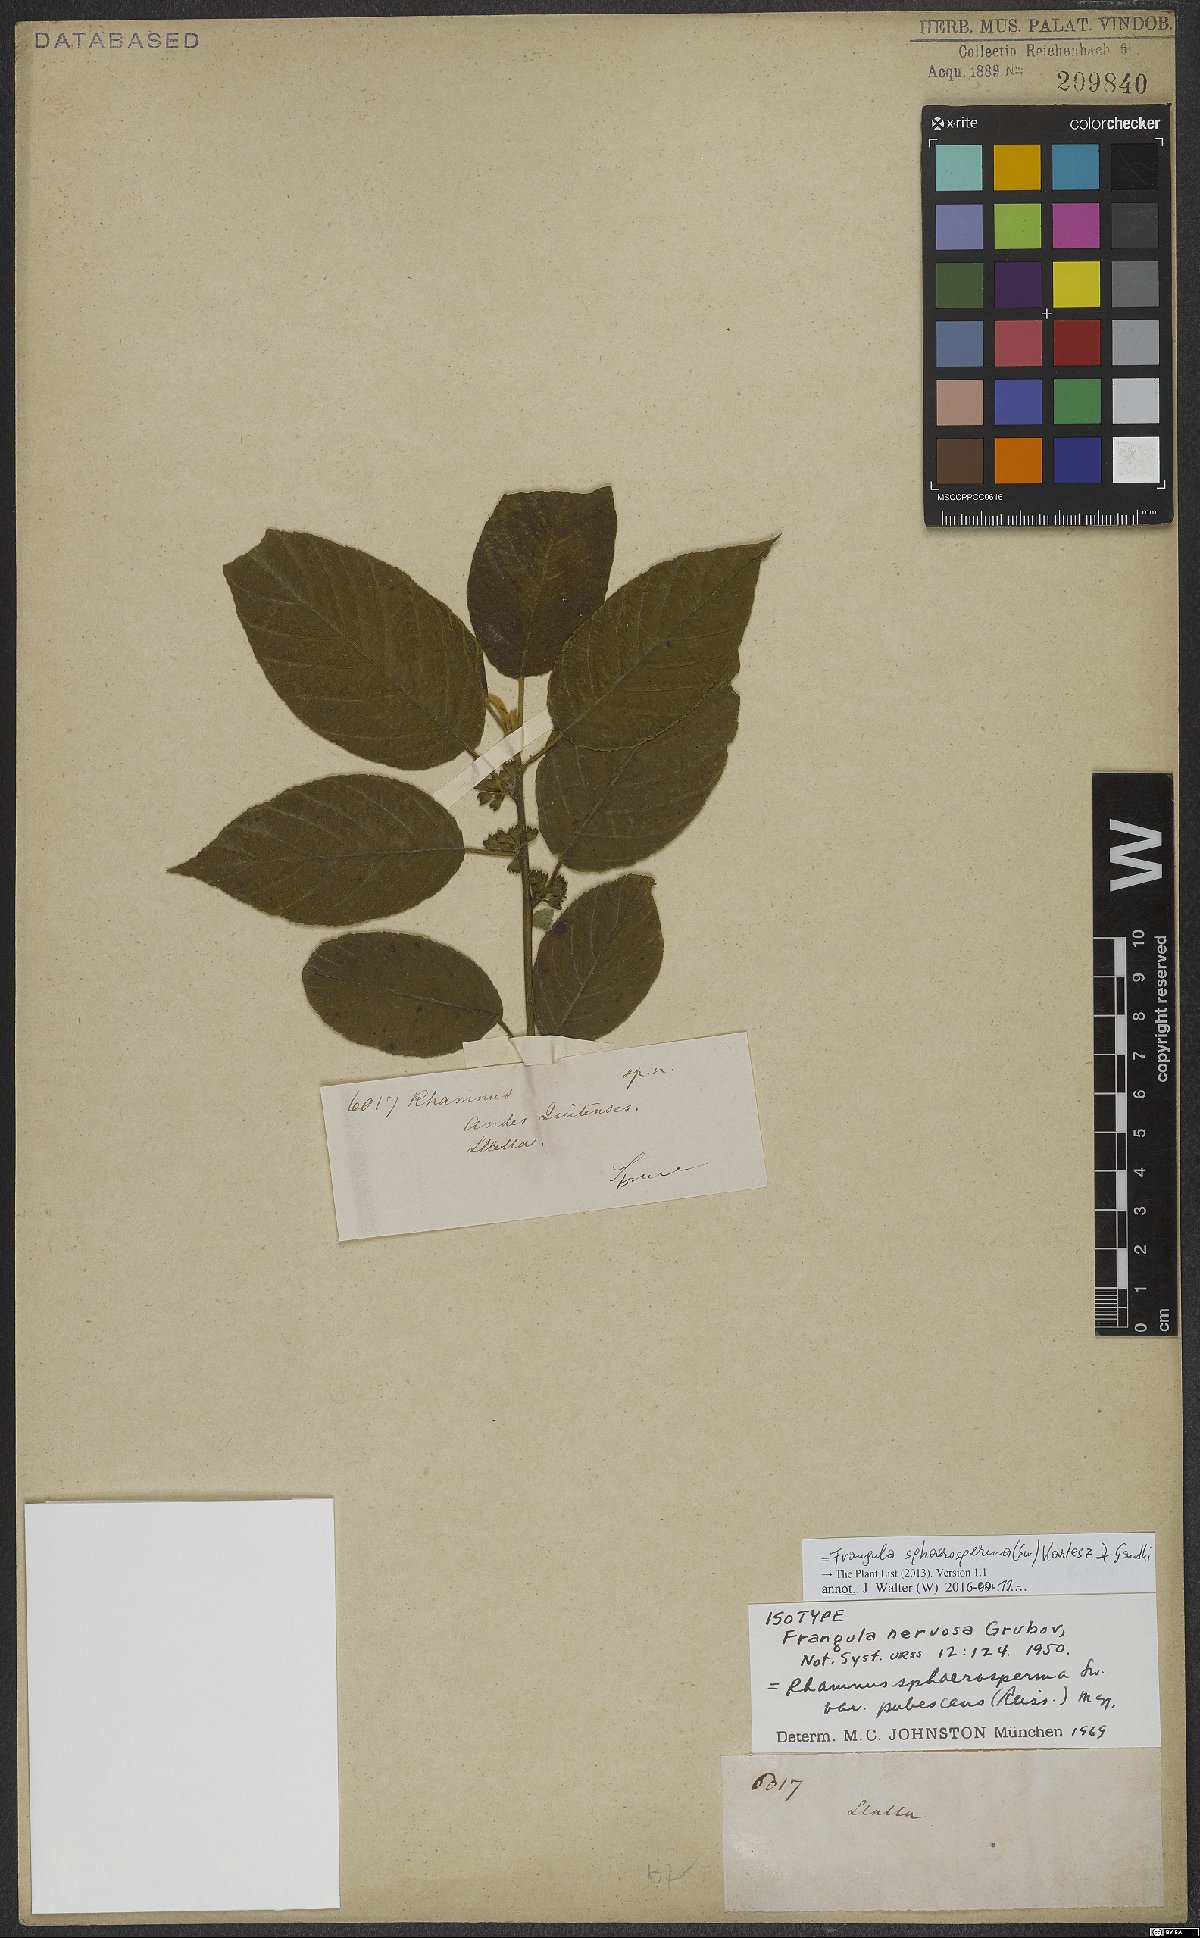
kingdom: Plantae
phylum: Tracheophyta
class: Magnoliopsida
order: Rosales
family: Rhamnaceae
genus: Frangula
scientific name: Frangula sphaerosperma
